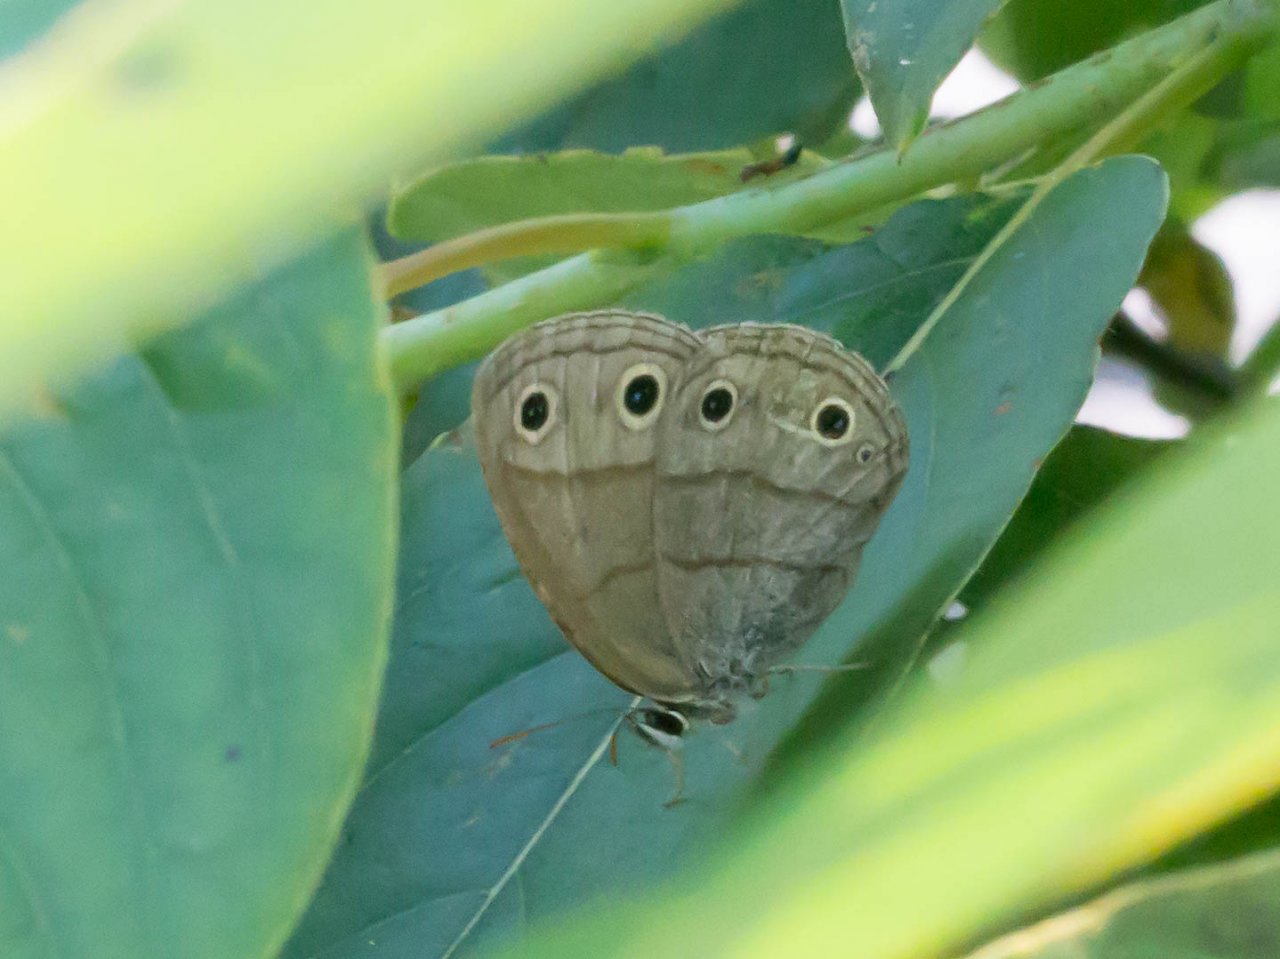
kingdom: Animalia
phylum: Arthropoda
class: Insecta
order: Lepidoptera
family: Nymphalidae
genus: Euptychia
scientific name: Euptychia cymela
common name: Little Wood Satyr
